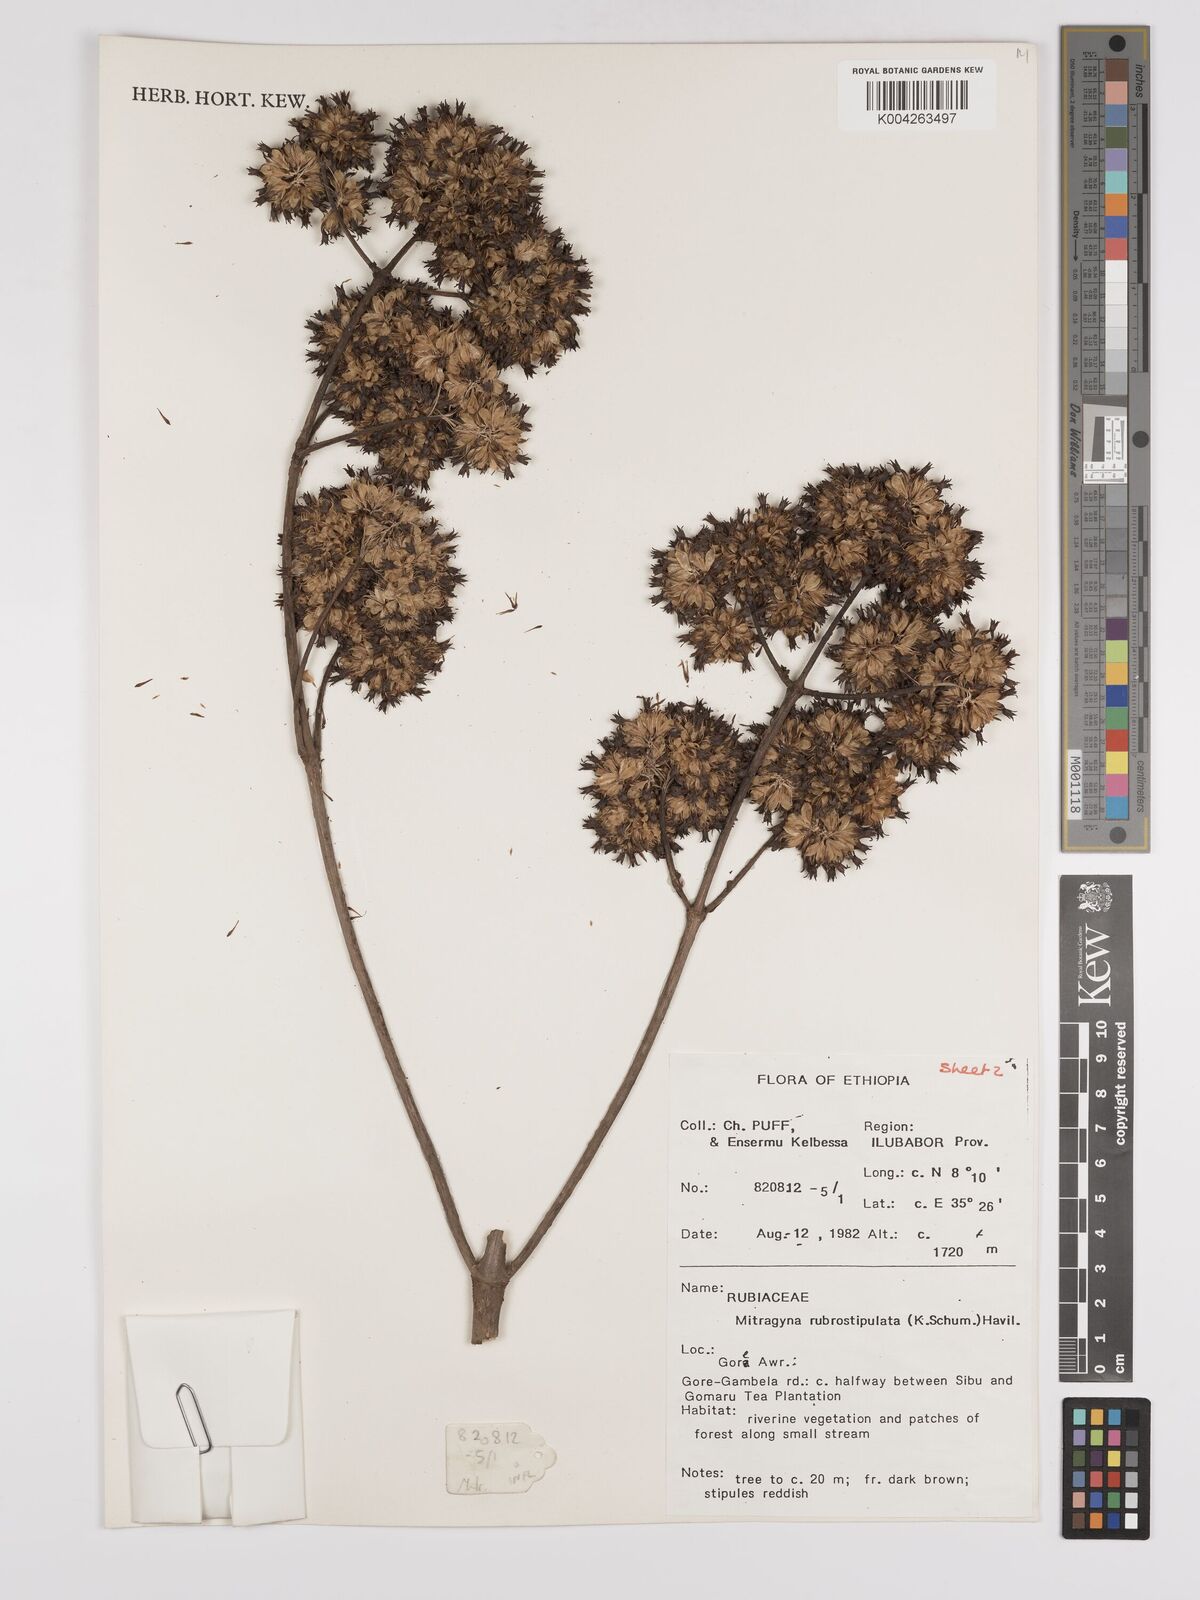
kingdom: Plantae
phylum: Tracheophyta
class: Magnoliopsida
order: Gentianales
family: Rubiaceae
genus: Mitragyna
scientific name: Mitragyna rubrostipulata
